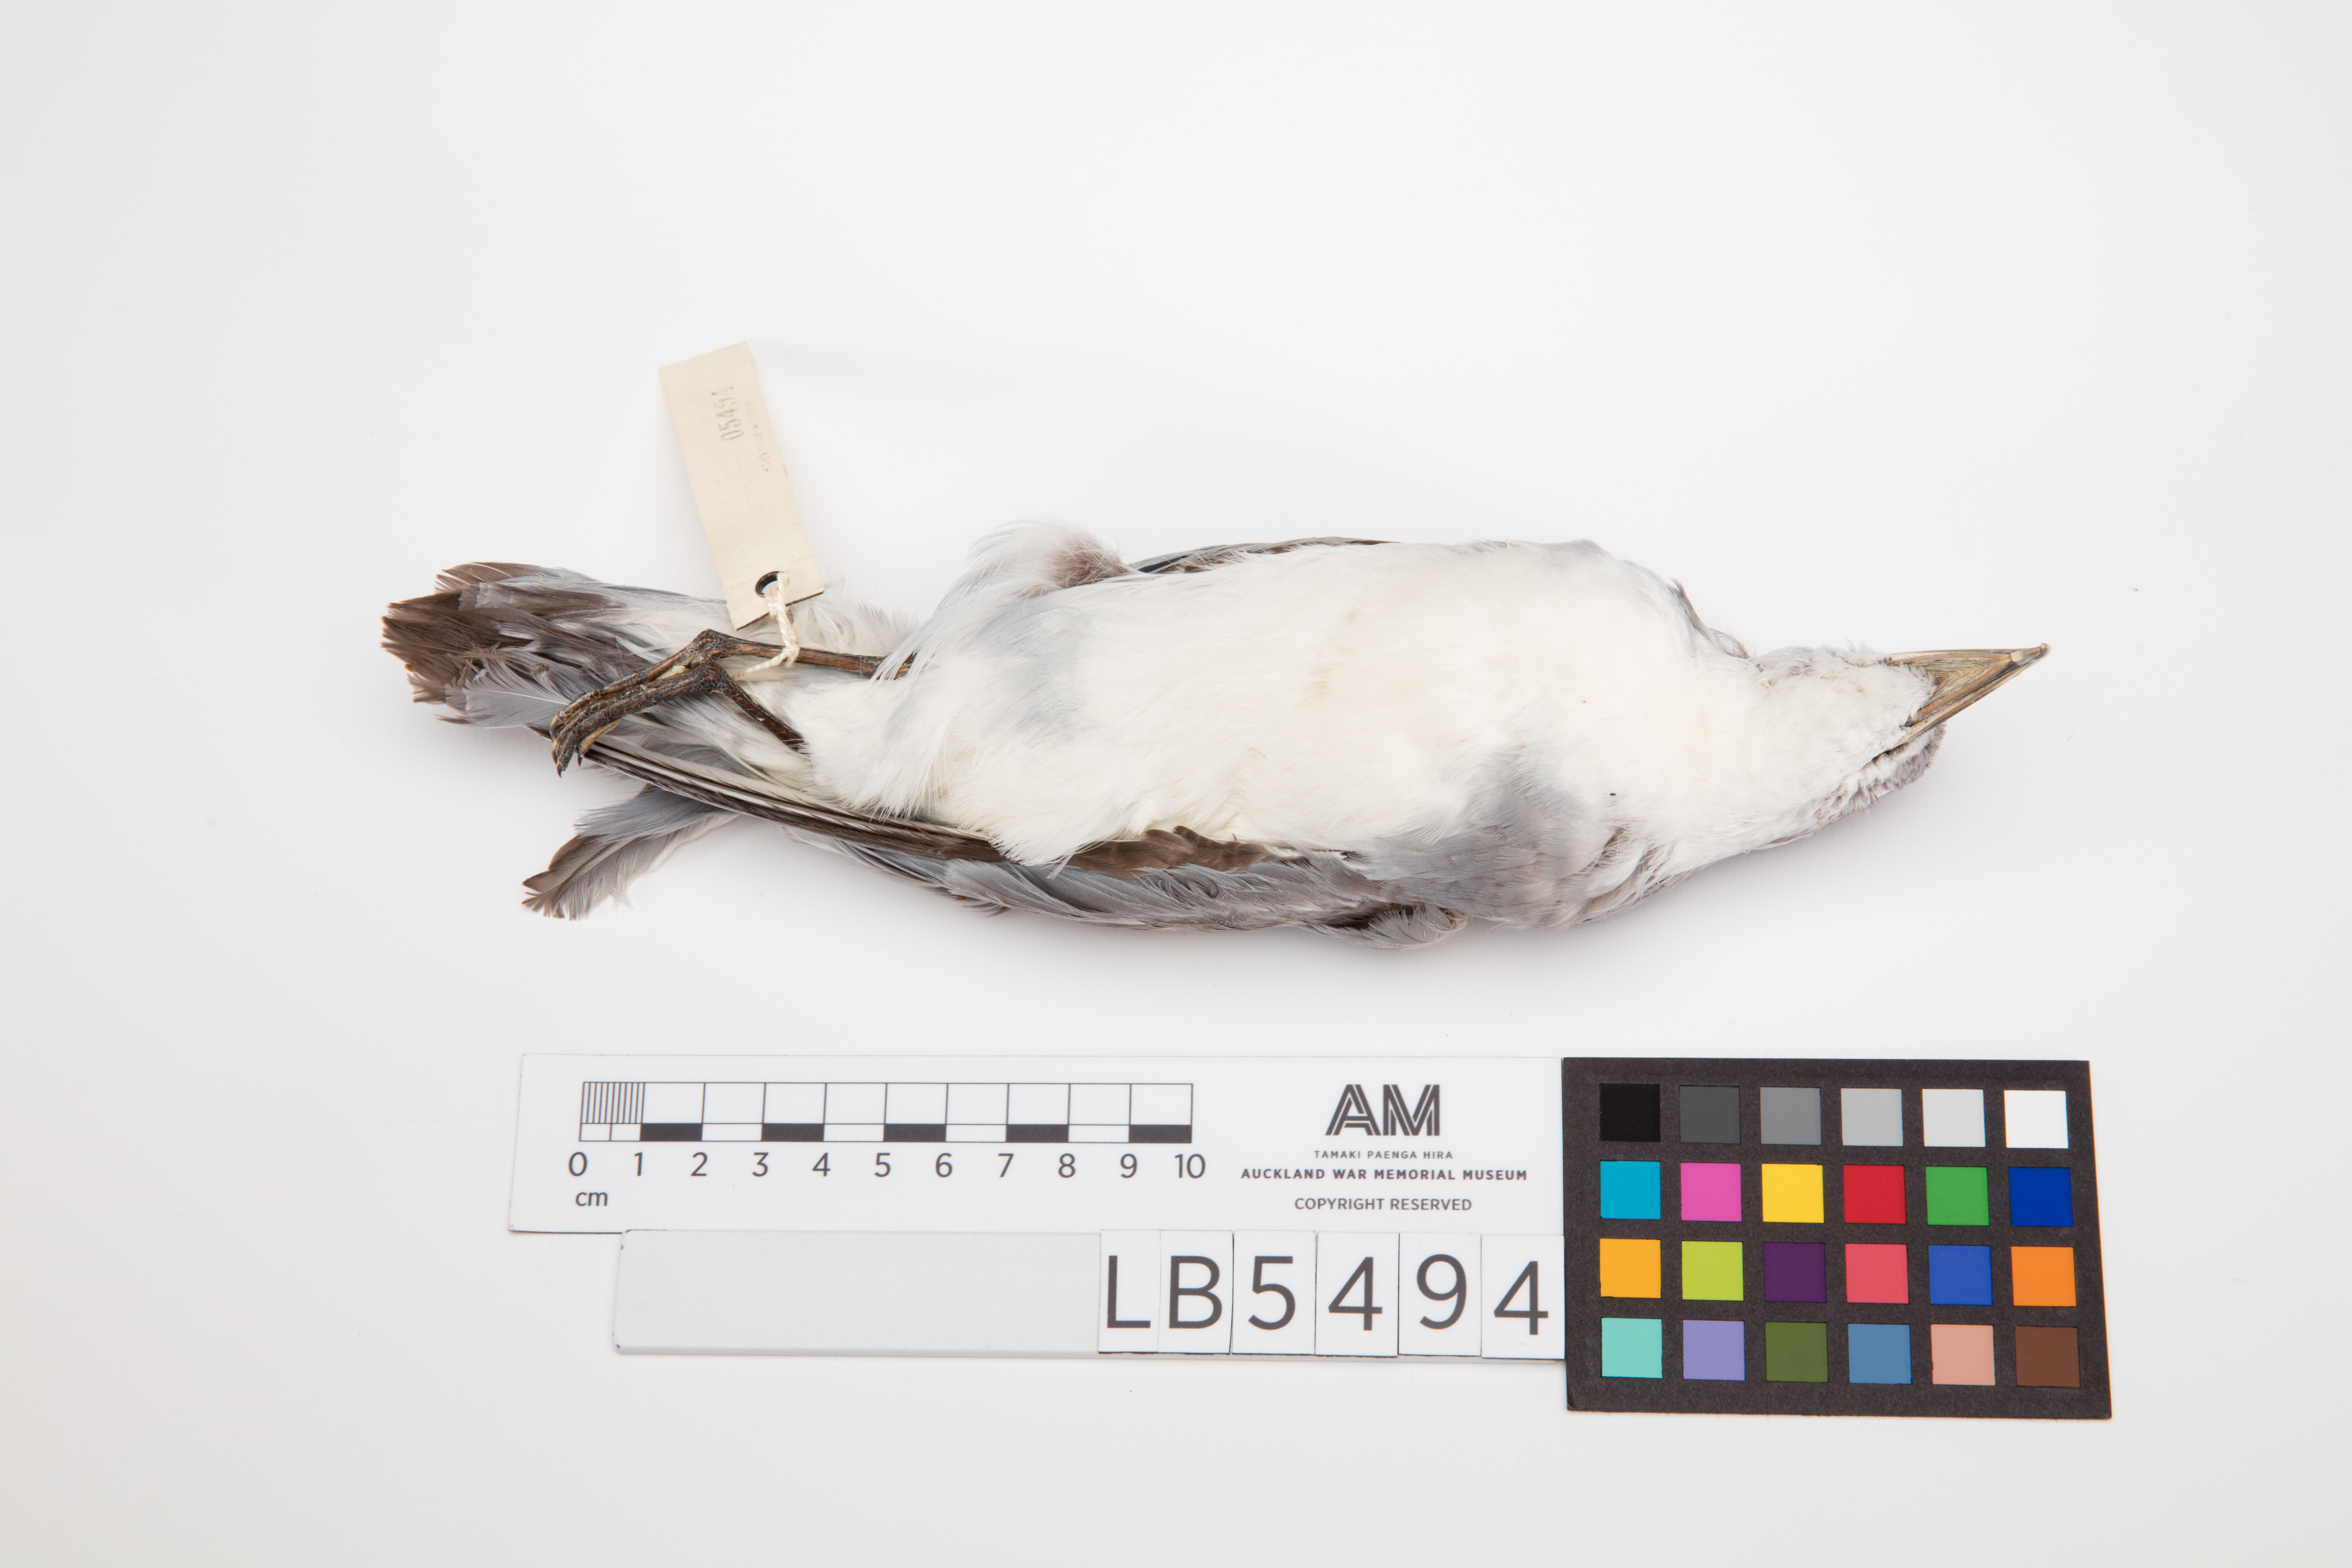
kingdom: Animalia
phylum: Chordata
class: Aves
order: Procellariiformes
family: Procellariidae
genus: Pachyptila
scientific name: Pachyptila salvini
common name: Salvin's prion
